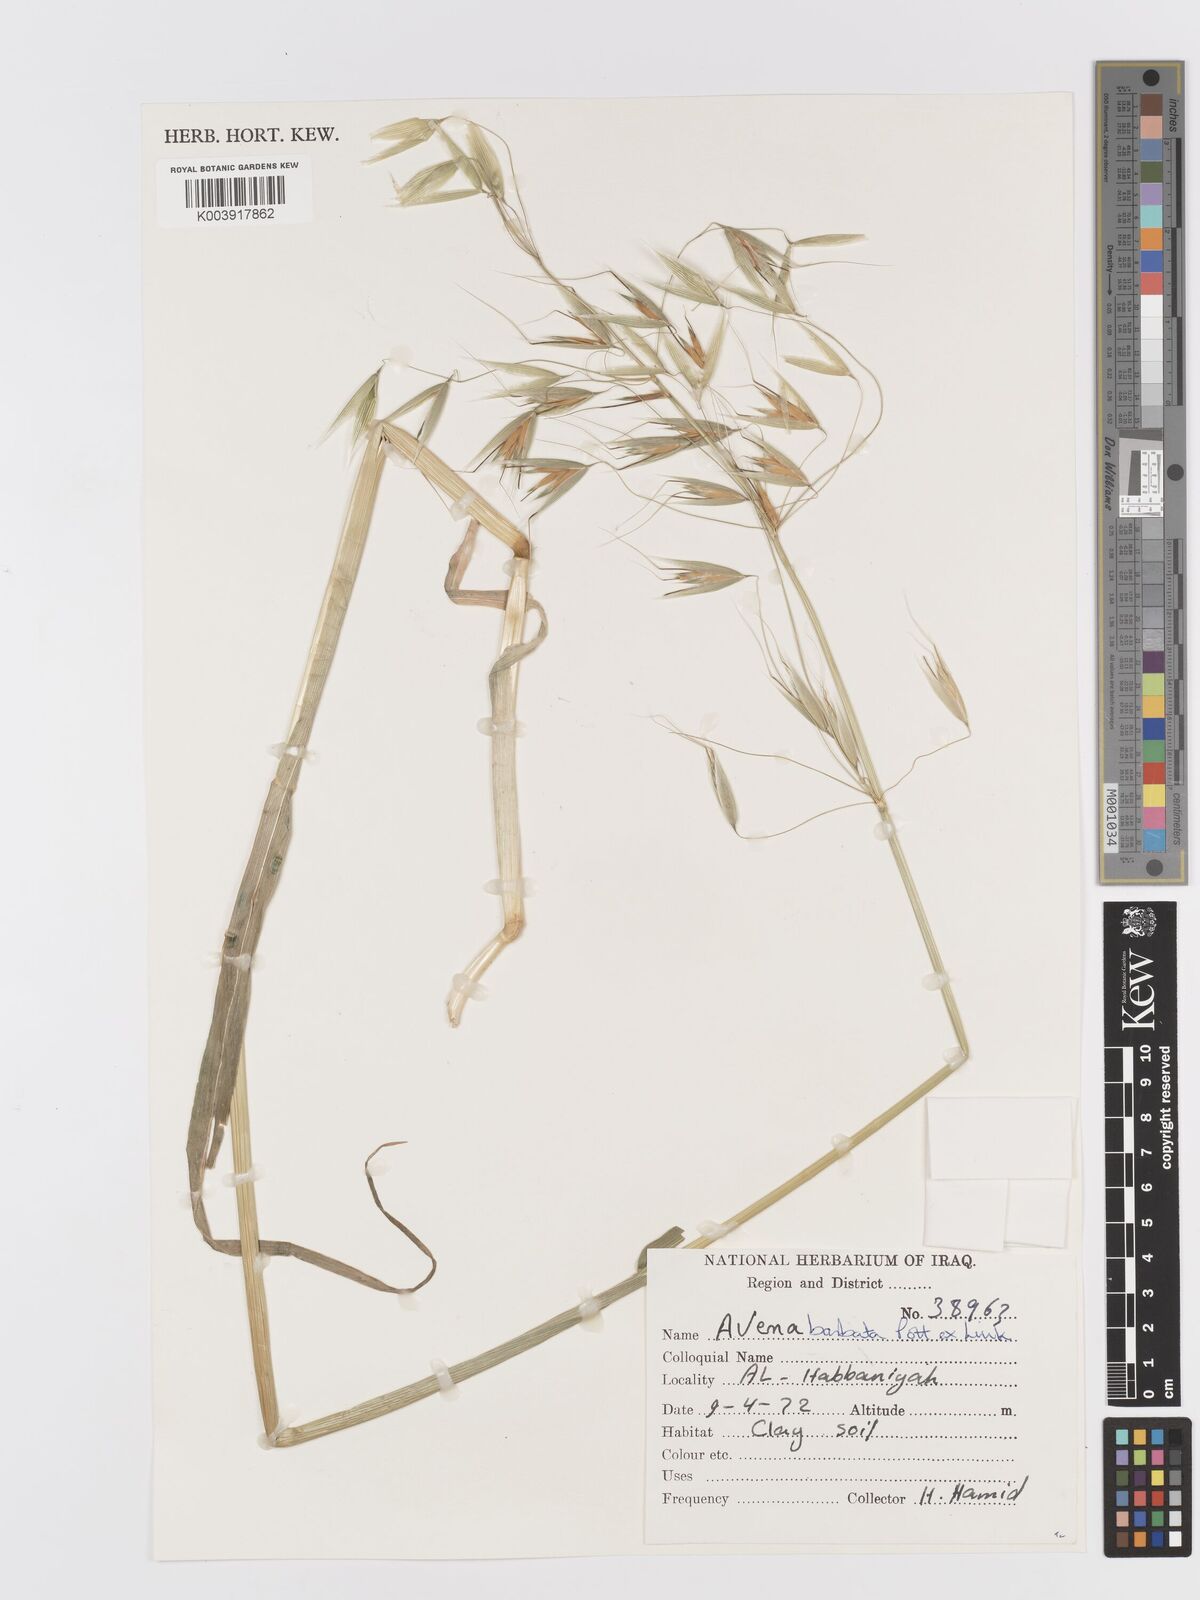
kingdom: Plantae
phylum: Tracheophyta
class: Liliopsida
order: Poales
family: Poaceae
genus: Avena
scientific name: Avena
